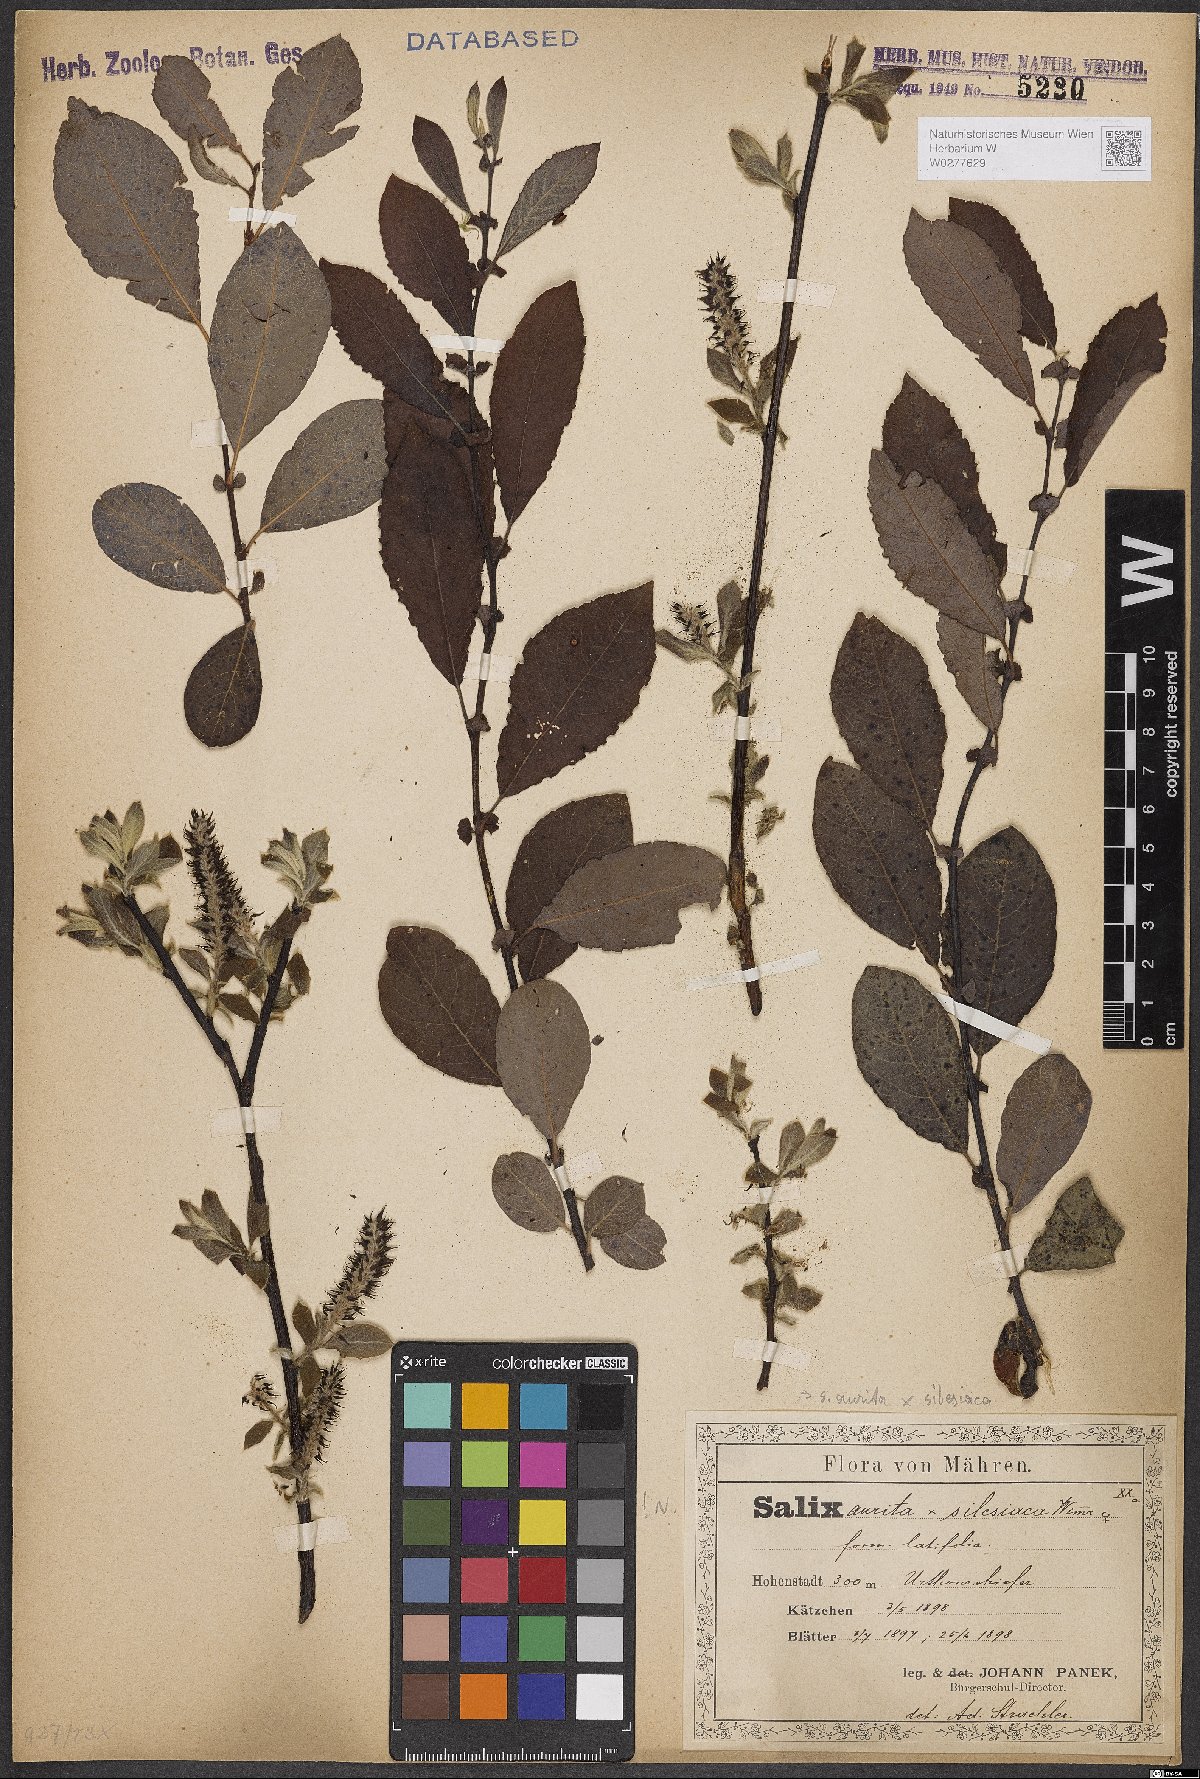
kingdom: Plantae
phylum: Tracheophyta
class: Magnoliopsida
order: Malpighiales
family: Salicaceae
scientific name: Salicaceae
